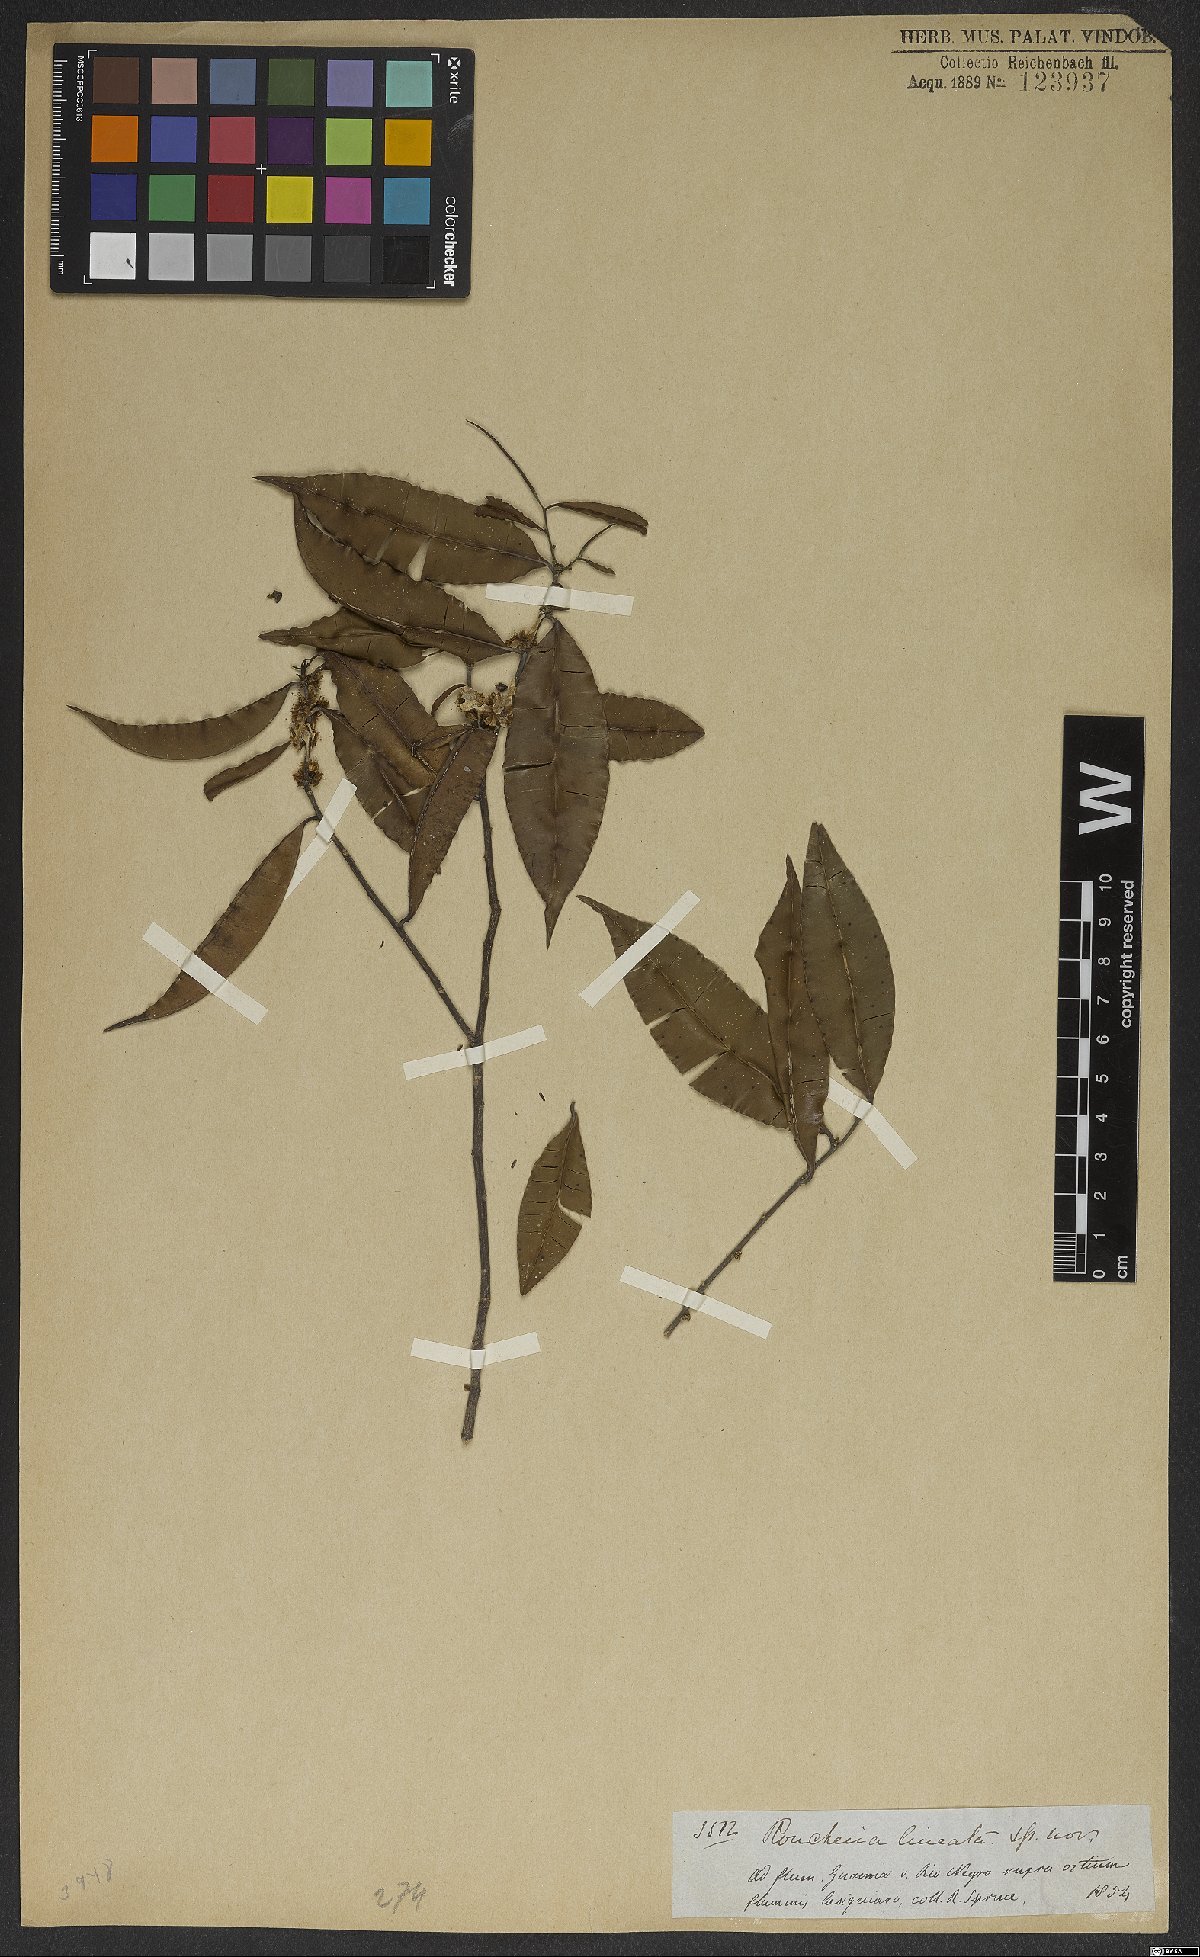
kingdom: Plantae
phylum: Tracheophyta
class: Magnoliopsida
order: Malpighiales
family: Linaceae
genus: Roucheria
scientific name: Roucheria calophylla
